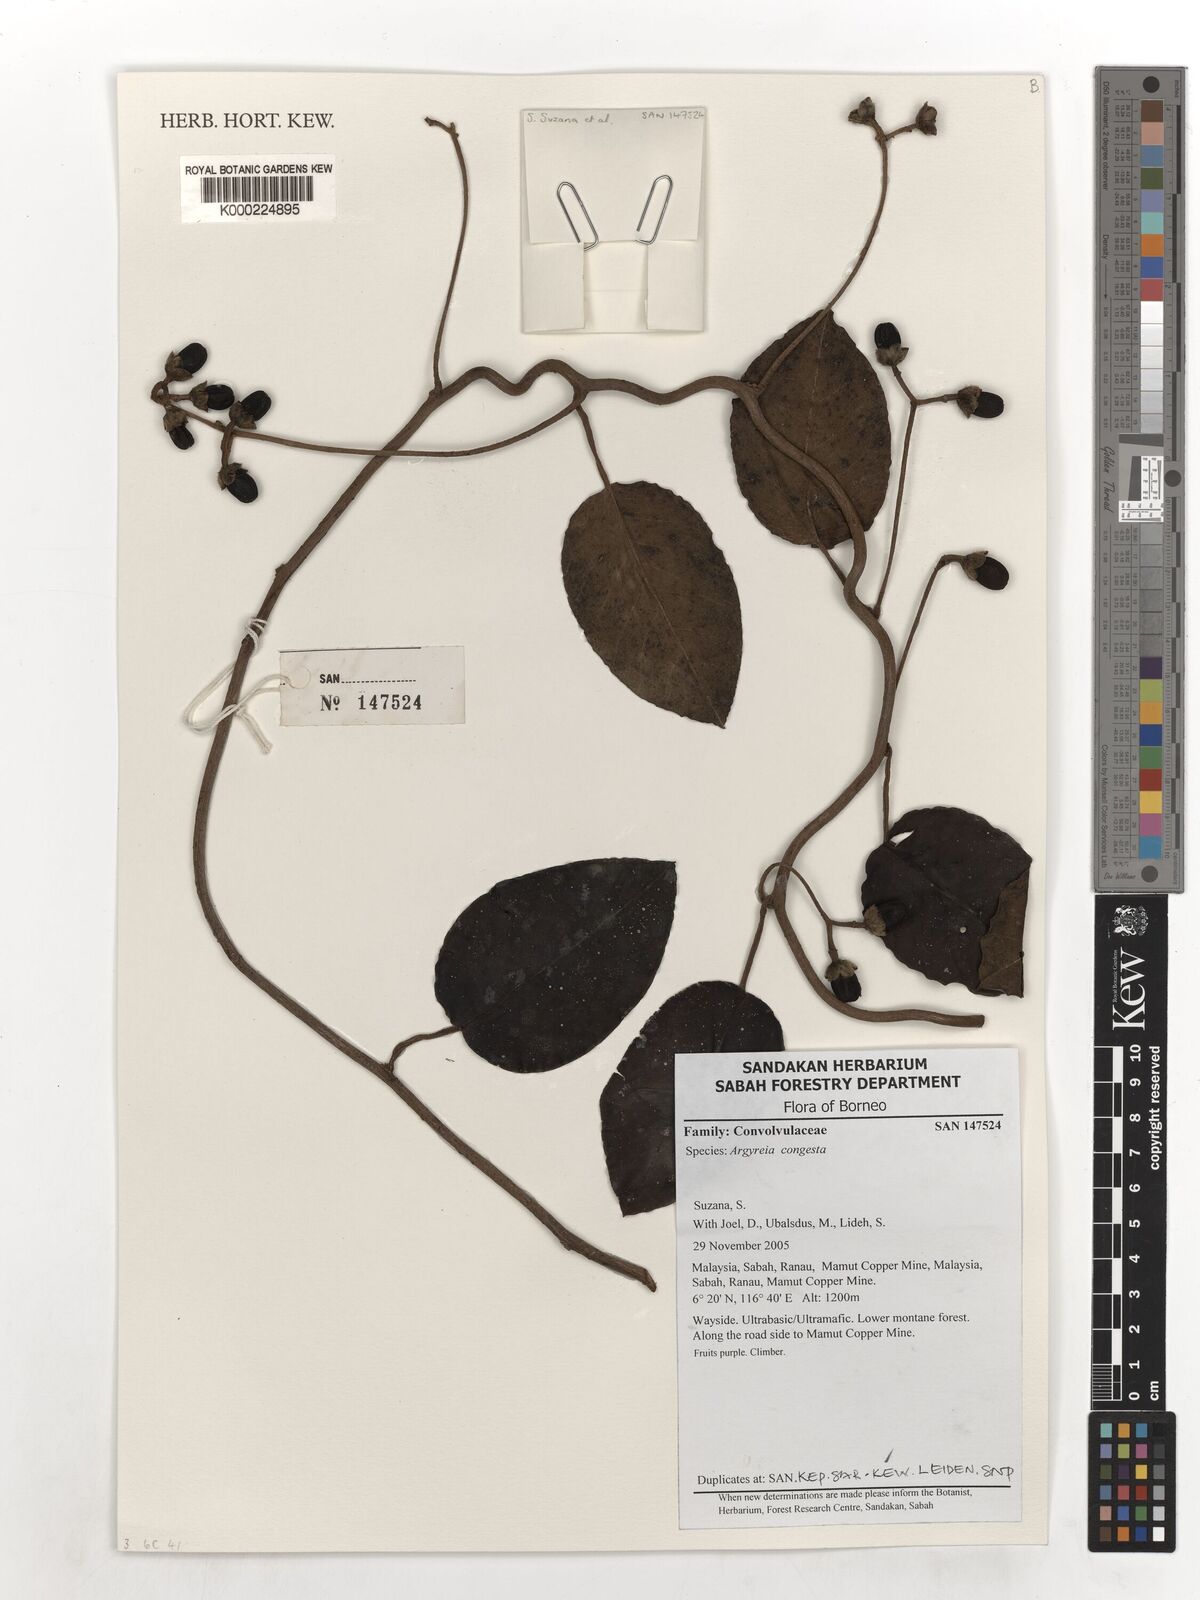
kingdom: Plantae
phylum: Tracheophyta
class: Magnoliopsida
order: Solanales
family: Convolvulaceae
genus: Argyreia
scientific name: Argyreia congesta
